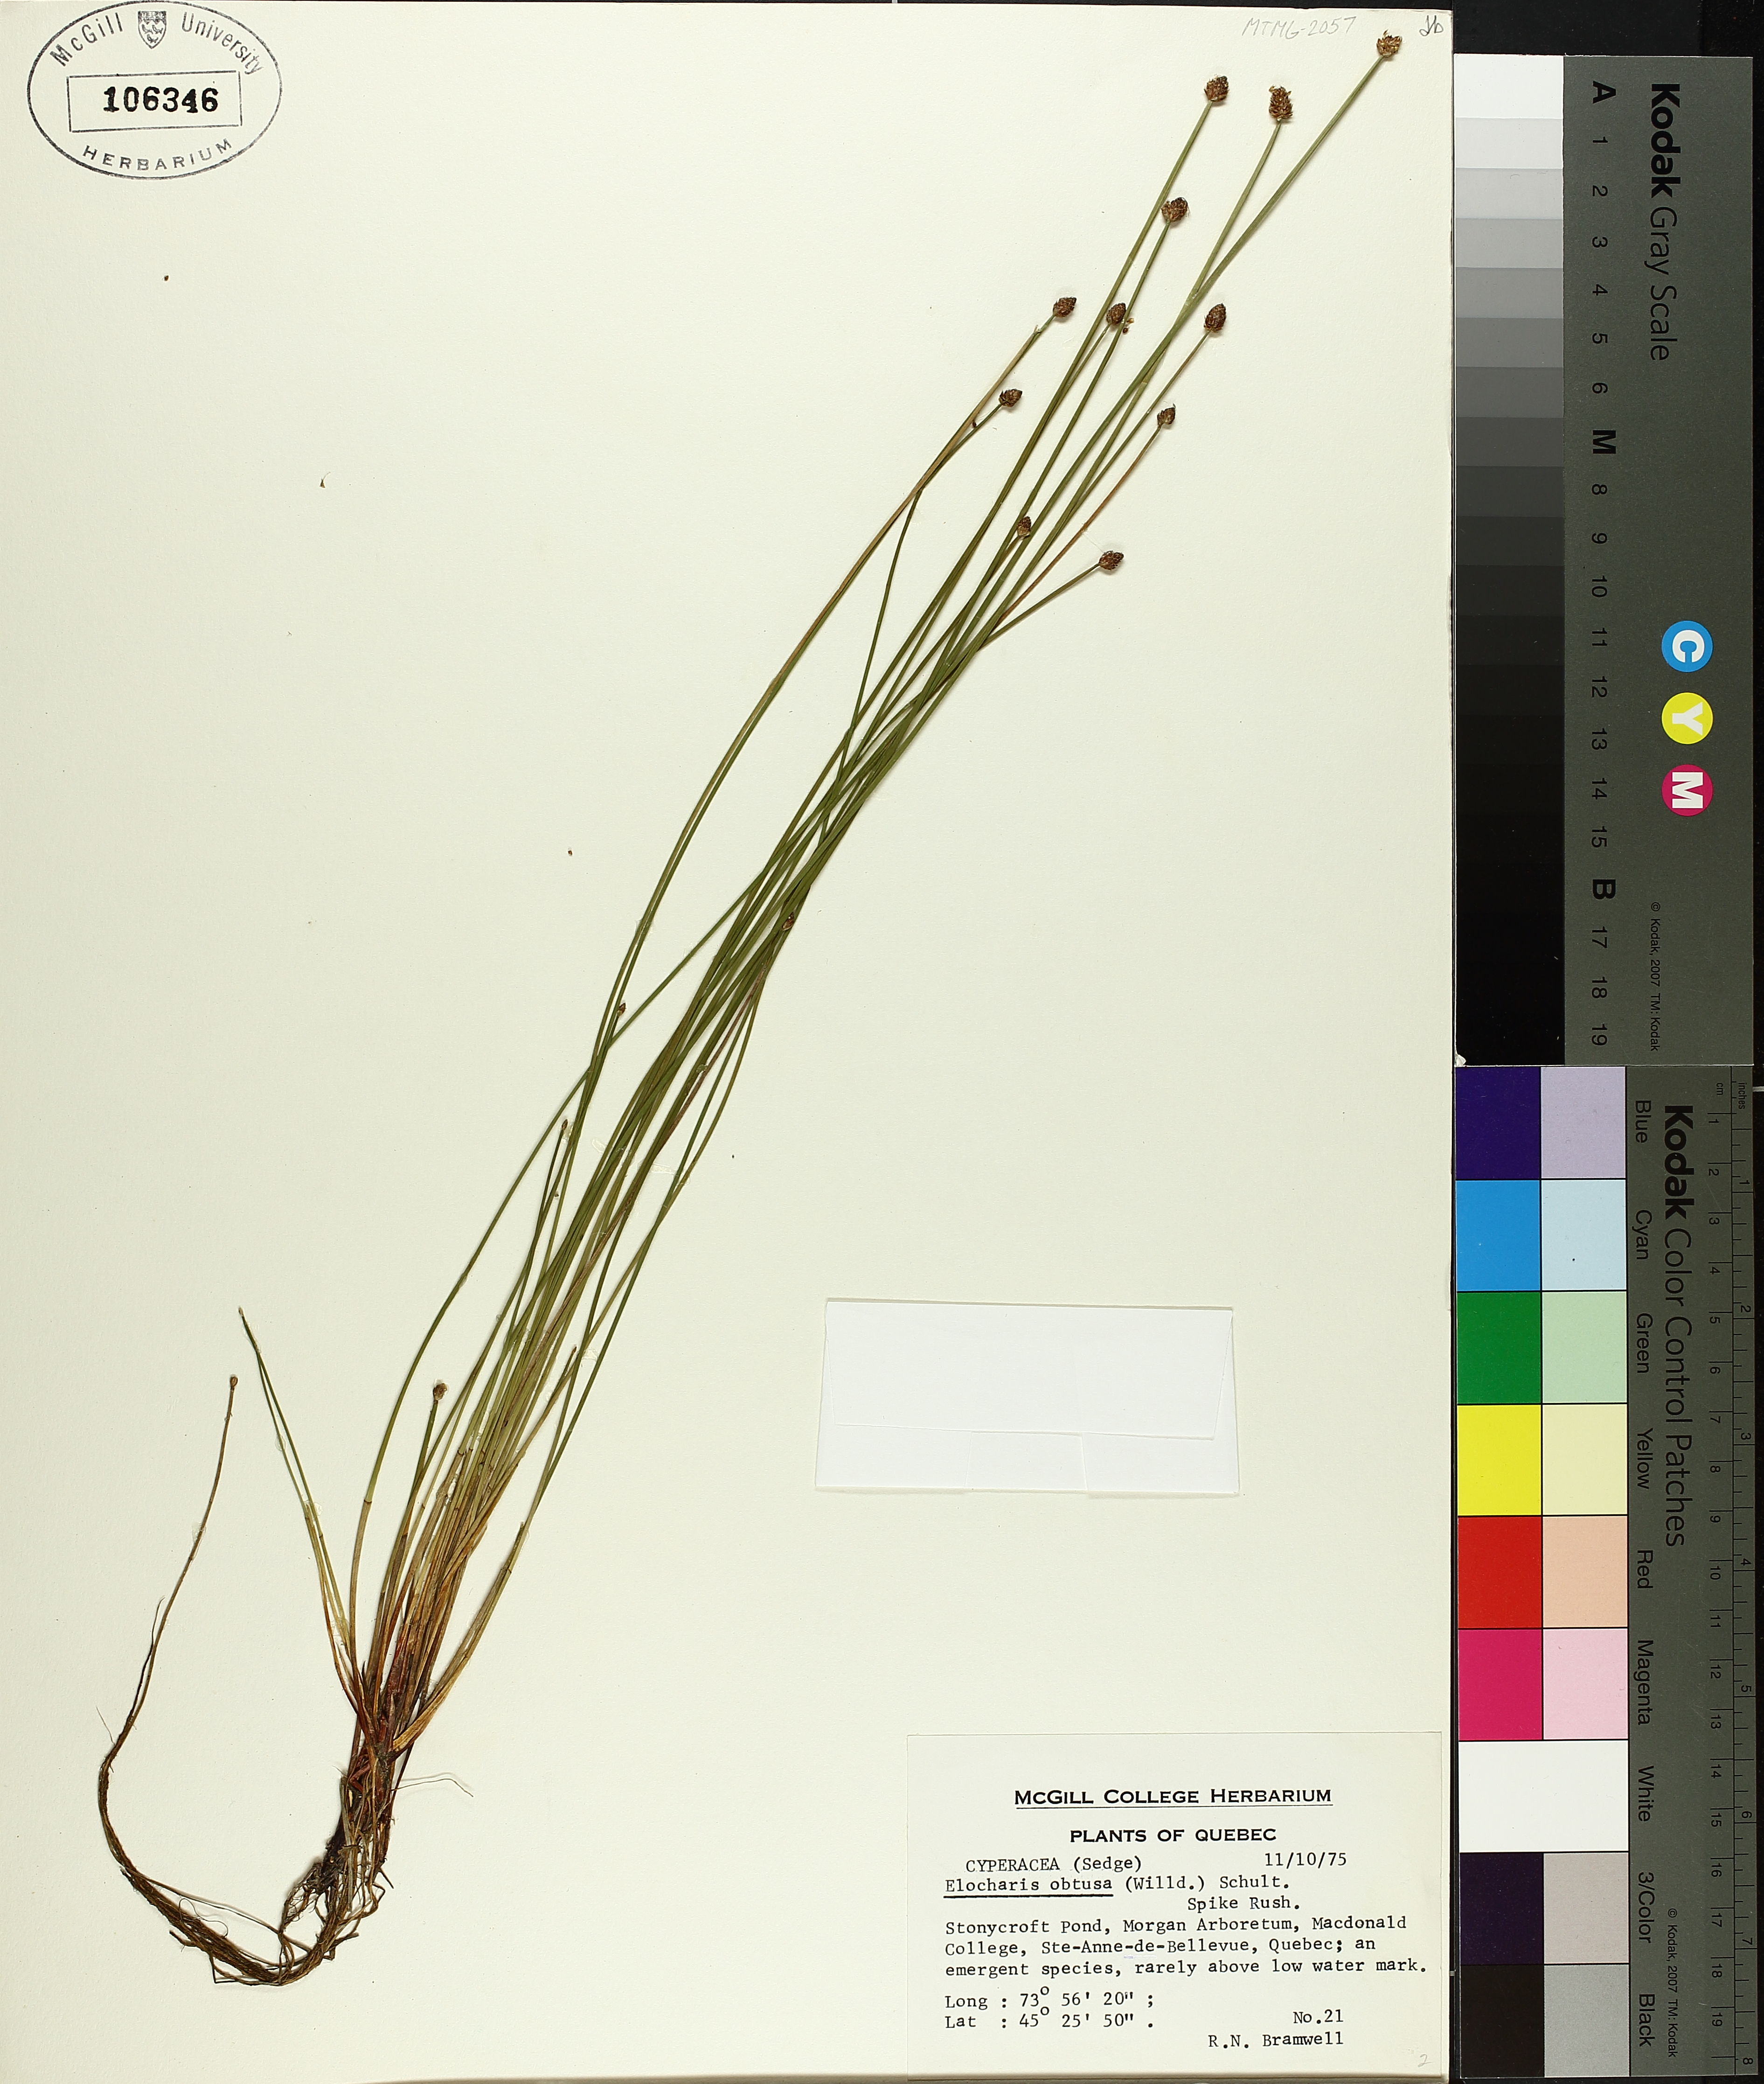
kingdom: Plantae
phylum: Tracheophyta
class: Liliopsida
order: Poales
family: Cyperaceae
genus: Eleocharis
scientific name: Eleocharis obtusa
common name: Blunt spikerush
